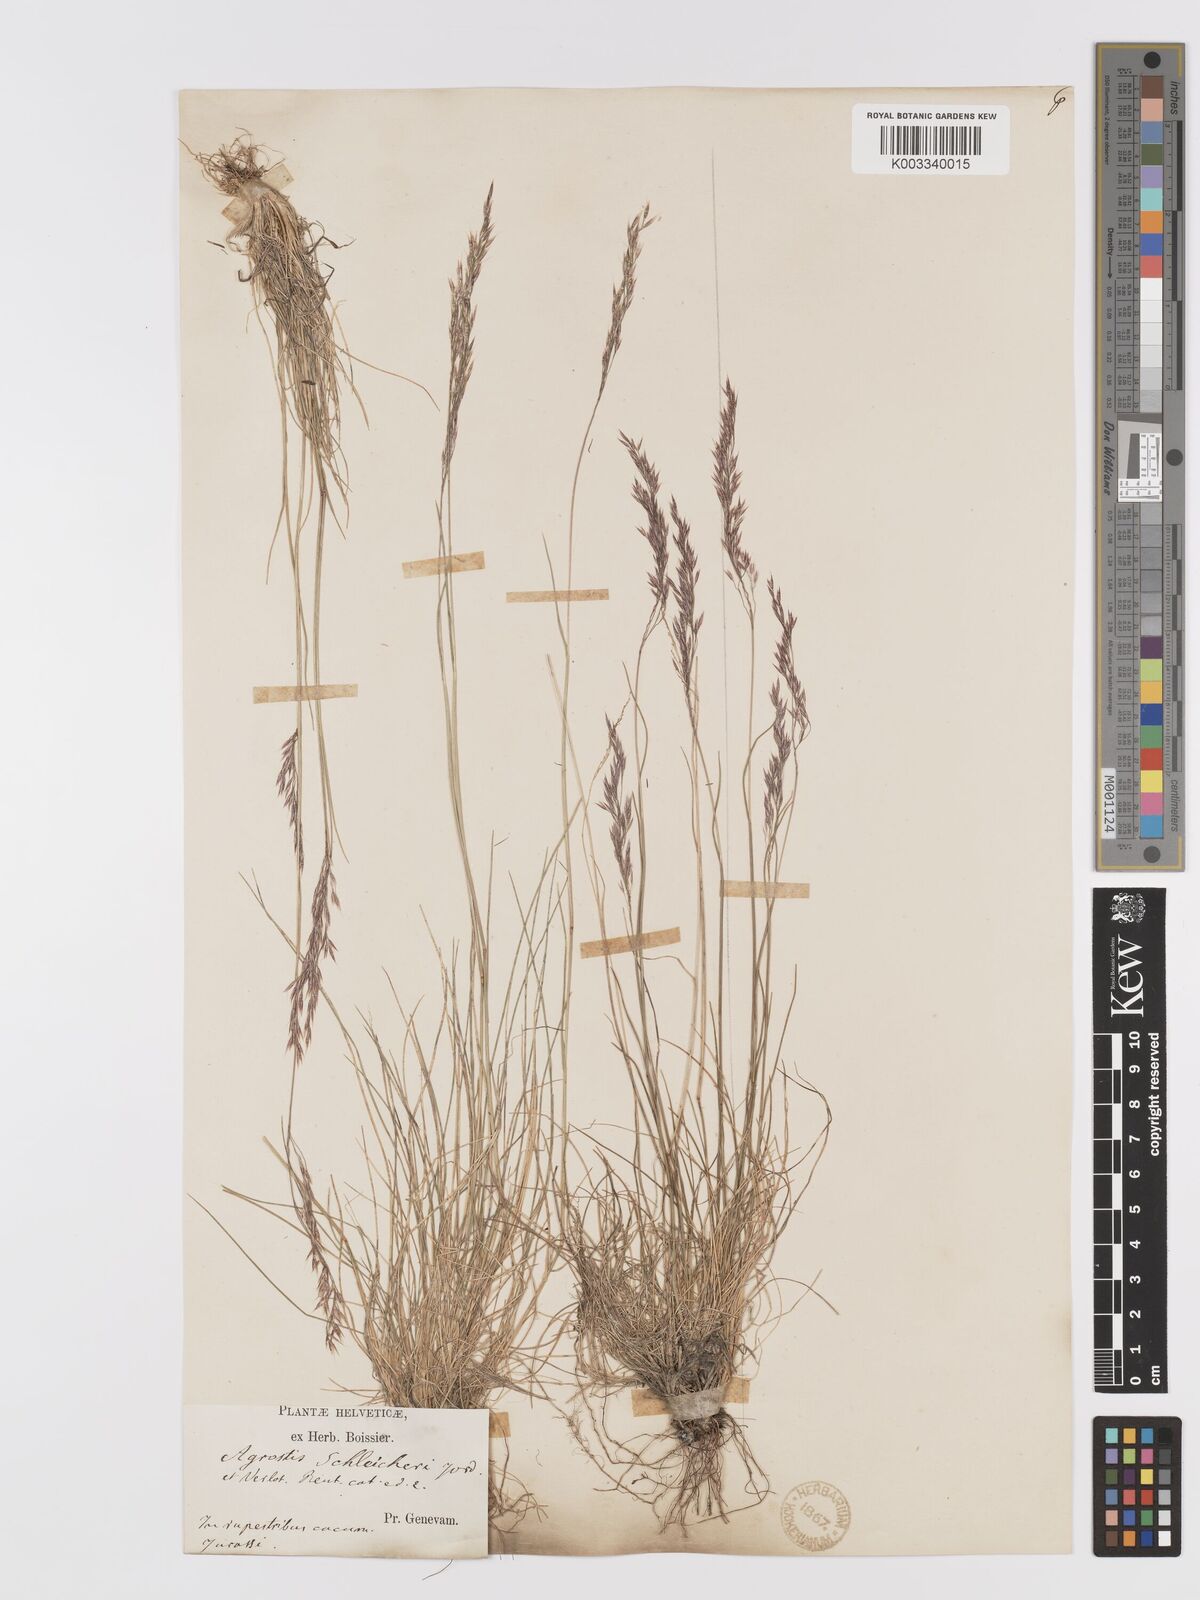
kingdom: Plantae
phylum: Tracheophyta
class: Liliopsida
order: Poales
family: Poaceae
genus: Alpagrostis
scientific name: Alpagrostis schleicheri
